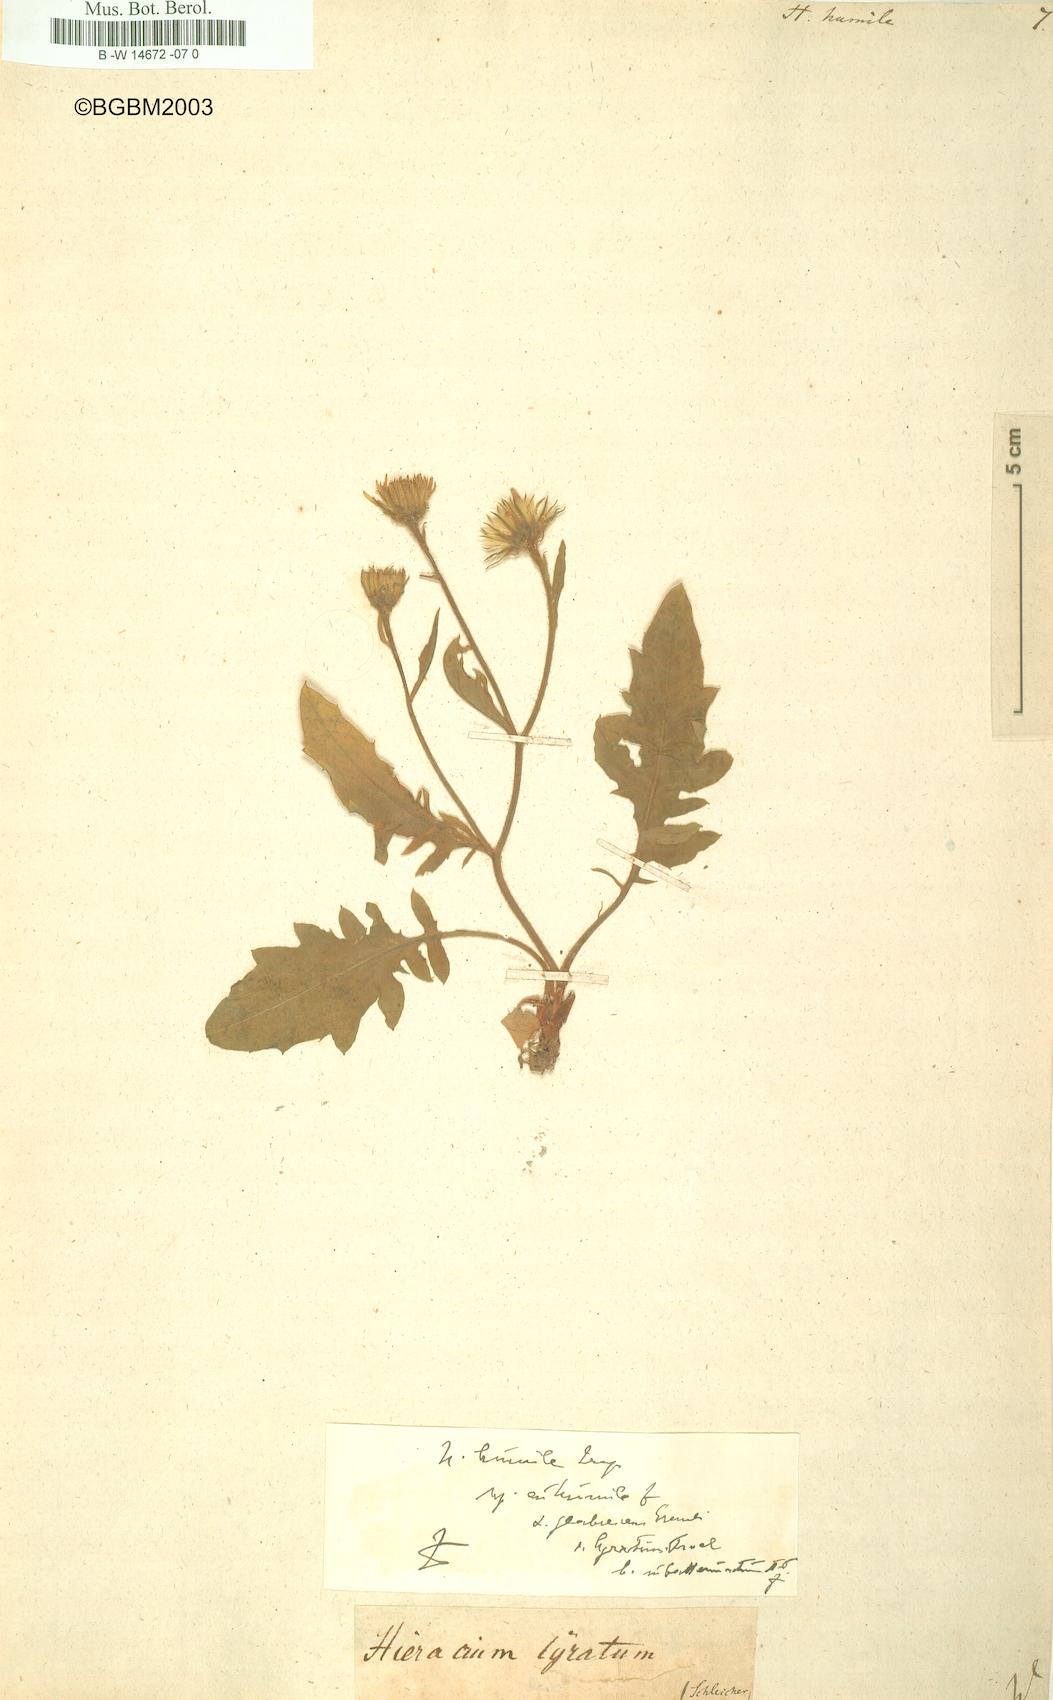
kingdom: Plantae
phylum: Tracheophyta
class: Magnoliopsida
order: Asterales
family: Asteraceae
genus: Hieracium
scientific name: Hieracium humile
